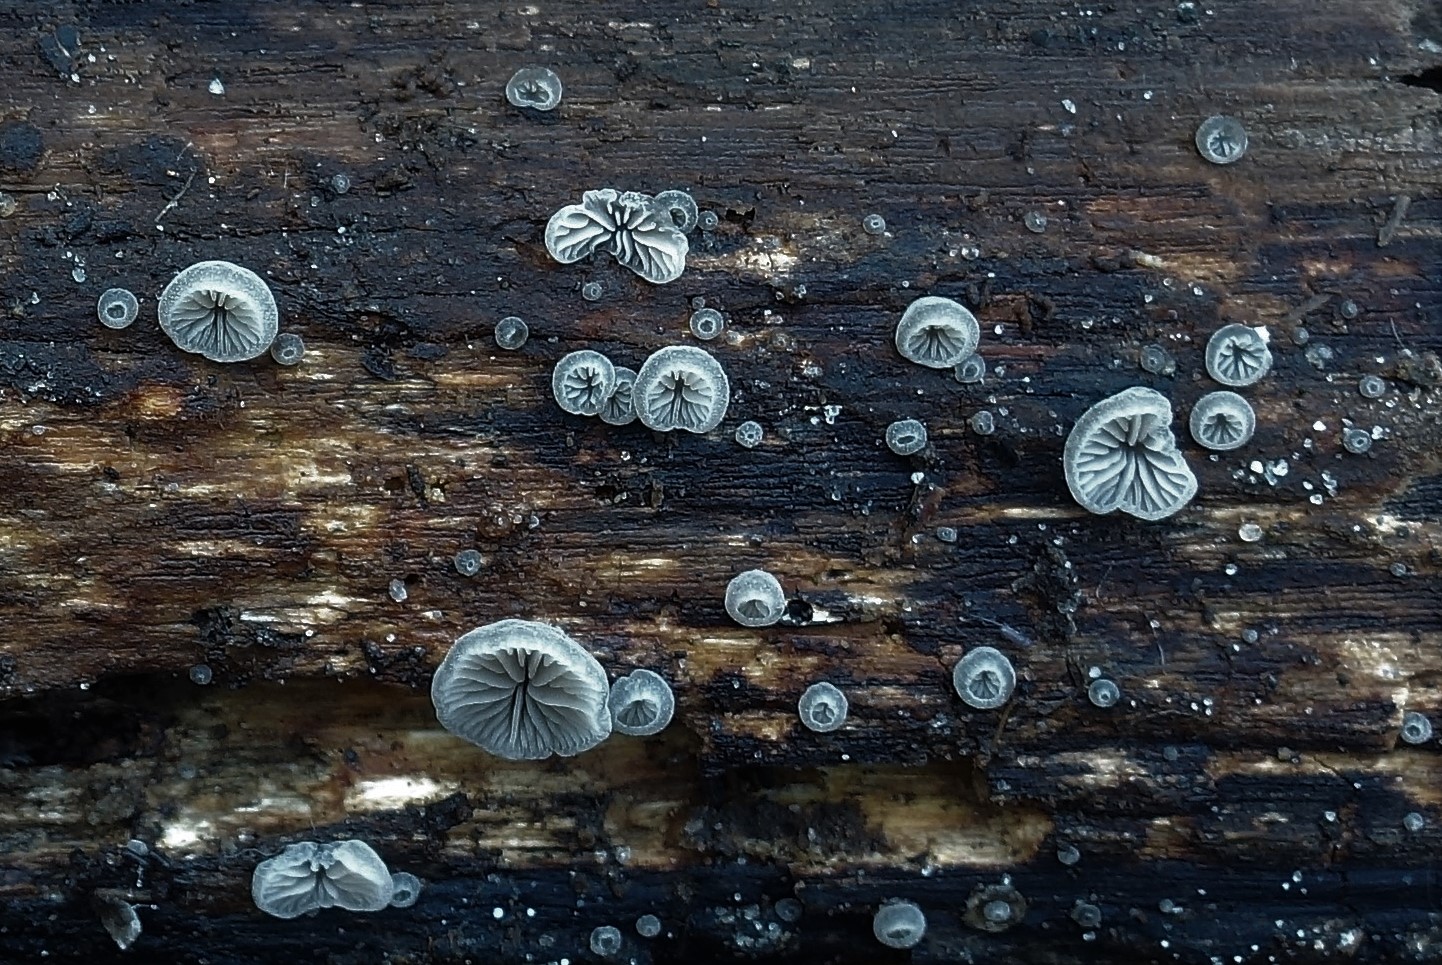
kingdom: Fungi
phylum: Basidiomycota
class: Agaricomycetes
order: Agaricales
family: Pleurotaceae
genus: Resupinatus
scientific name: Resupinatus applicatus
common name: lysfiltet barkhat
